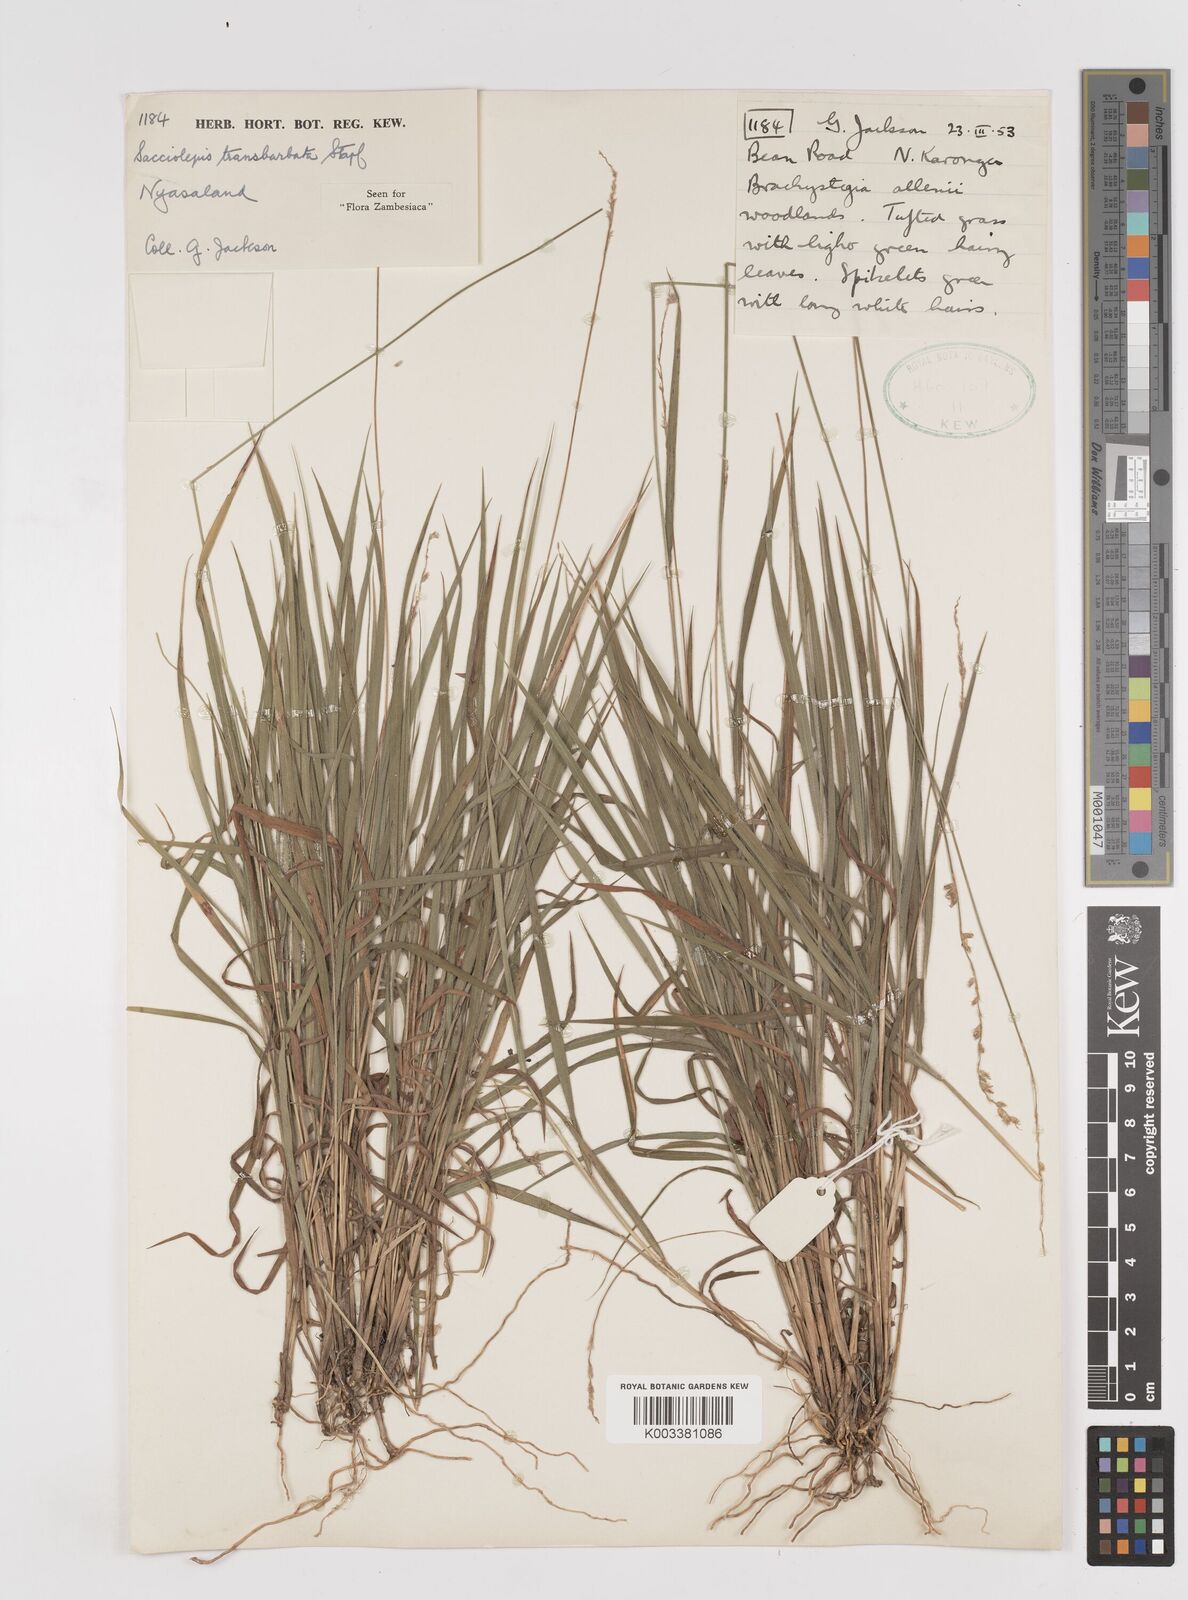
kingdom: Plantae
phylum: Tracheophyta
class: Liliopsida
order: Poales
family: Poaceae
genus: Sacciolepis
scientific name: Sacciolepis transbarbata
